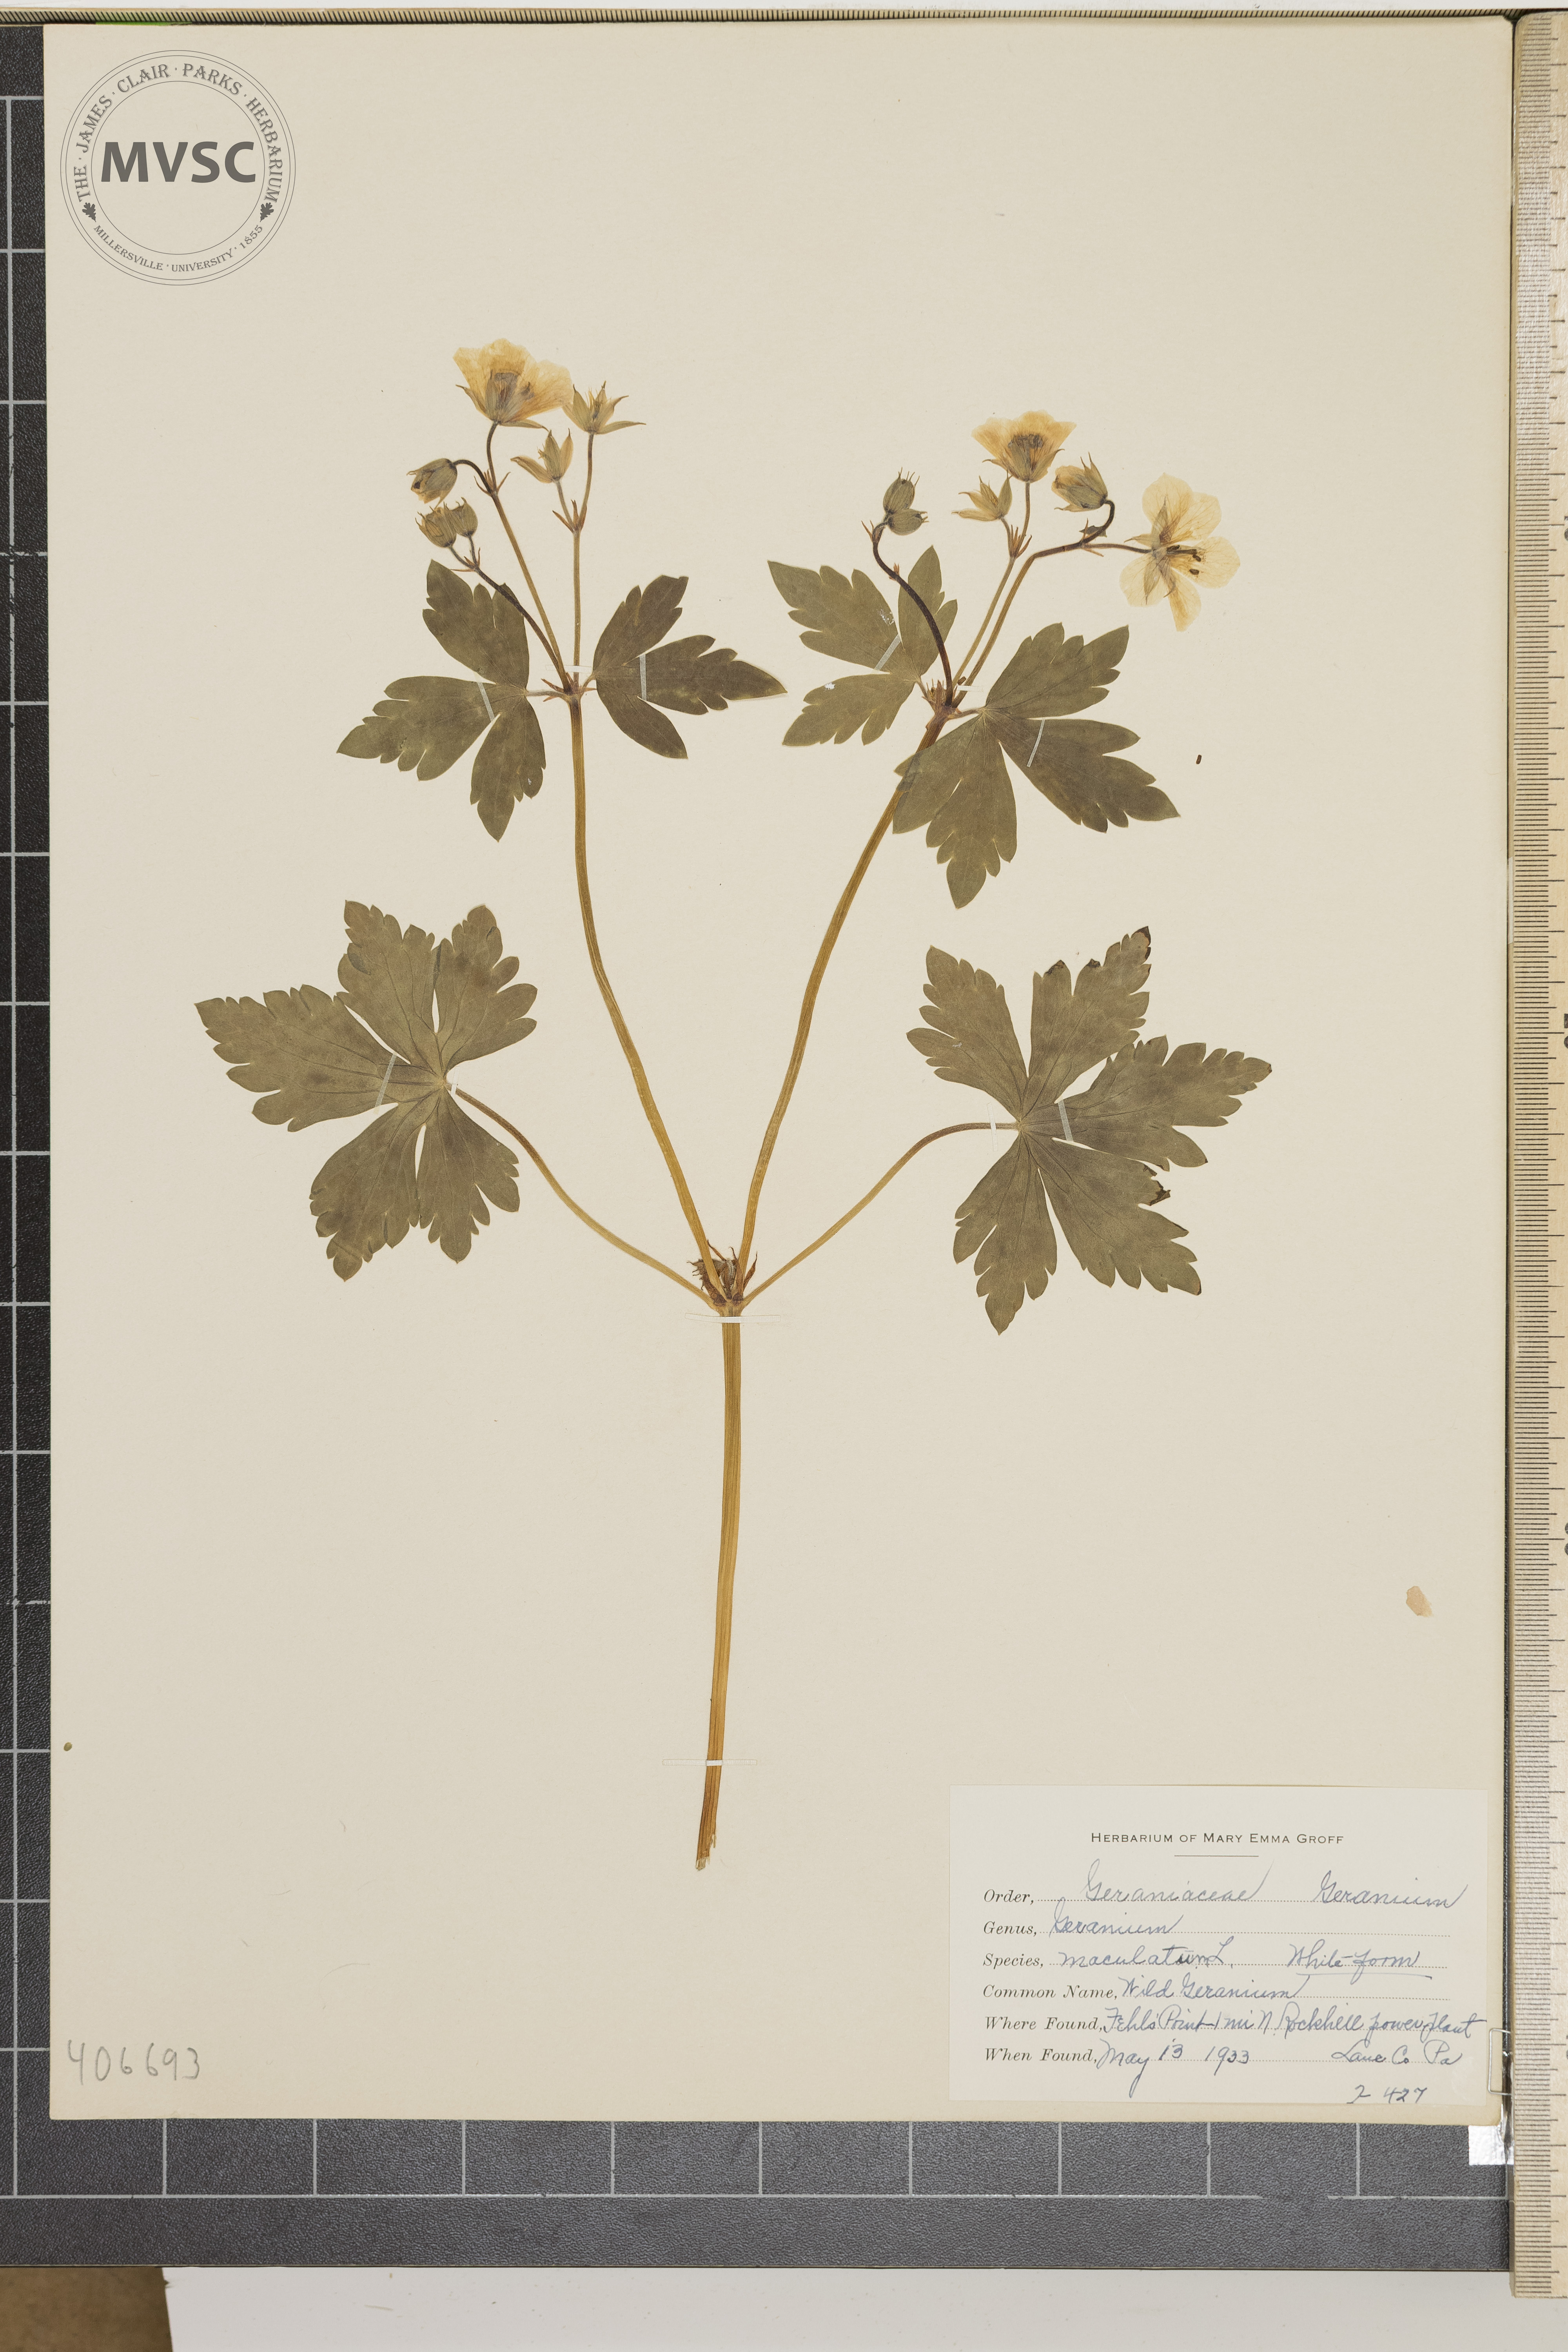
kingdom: Plantae
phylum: Tracheophyta
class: Magnoliopsida
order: Geraniales
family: Geraniaceae
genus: Geranium
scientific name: Geranium maculatum
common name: Spotted geranium
